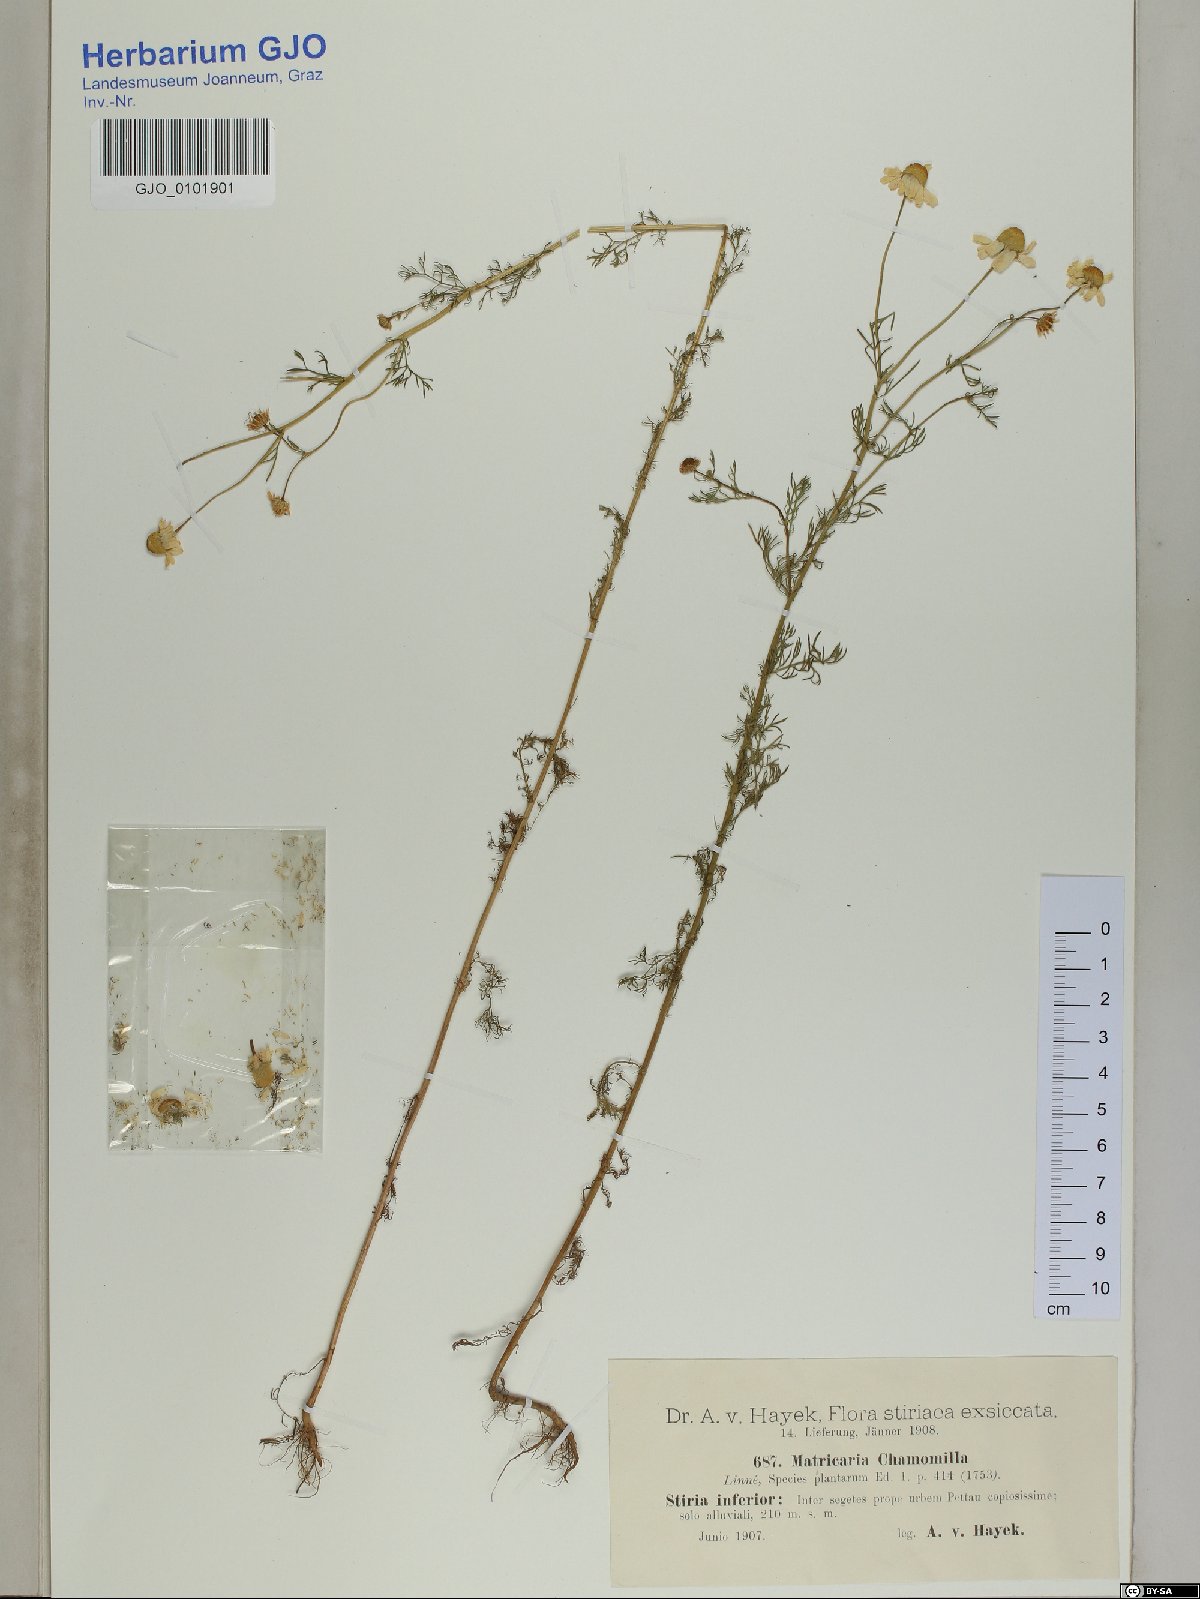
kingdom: Plantae
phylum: Tracheophyta
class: Magnoliopsida
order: Asterales
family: Asteraceae
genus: Matricaria
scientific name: Matricaria chamomilla
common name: Scented mayweed
